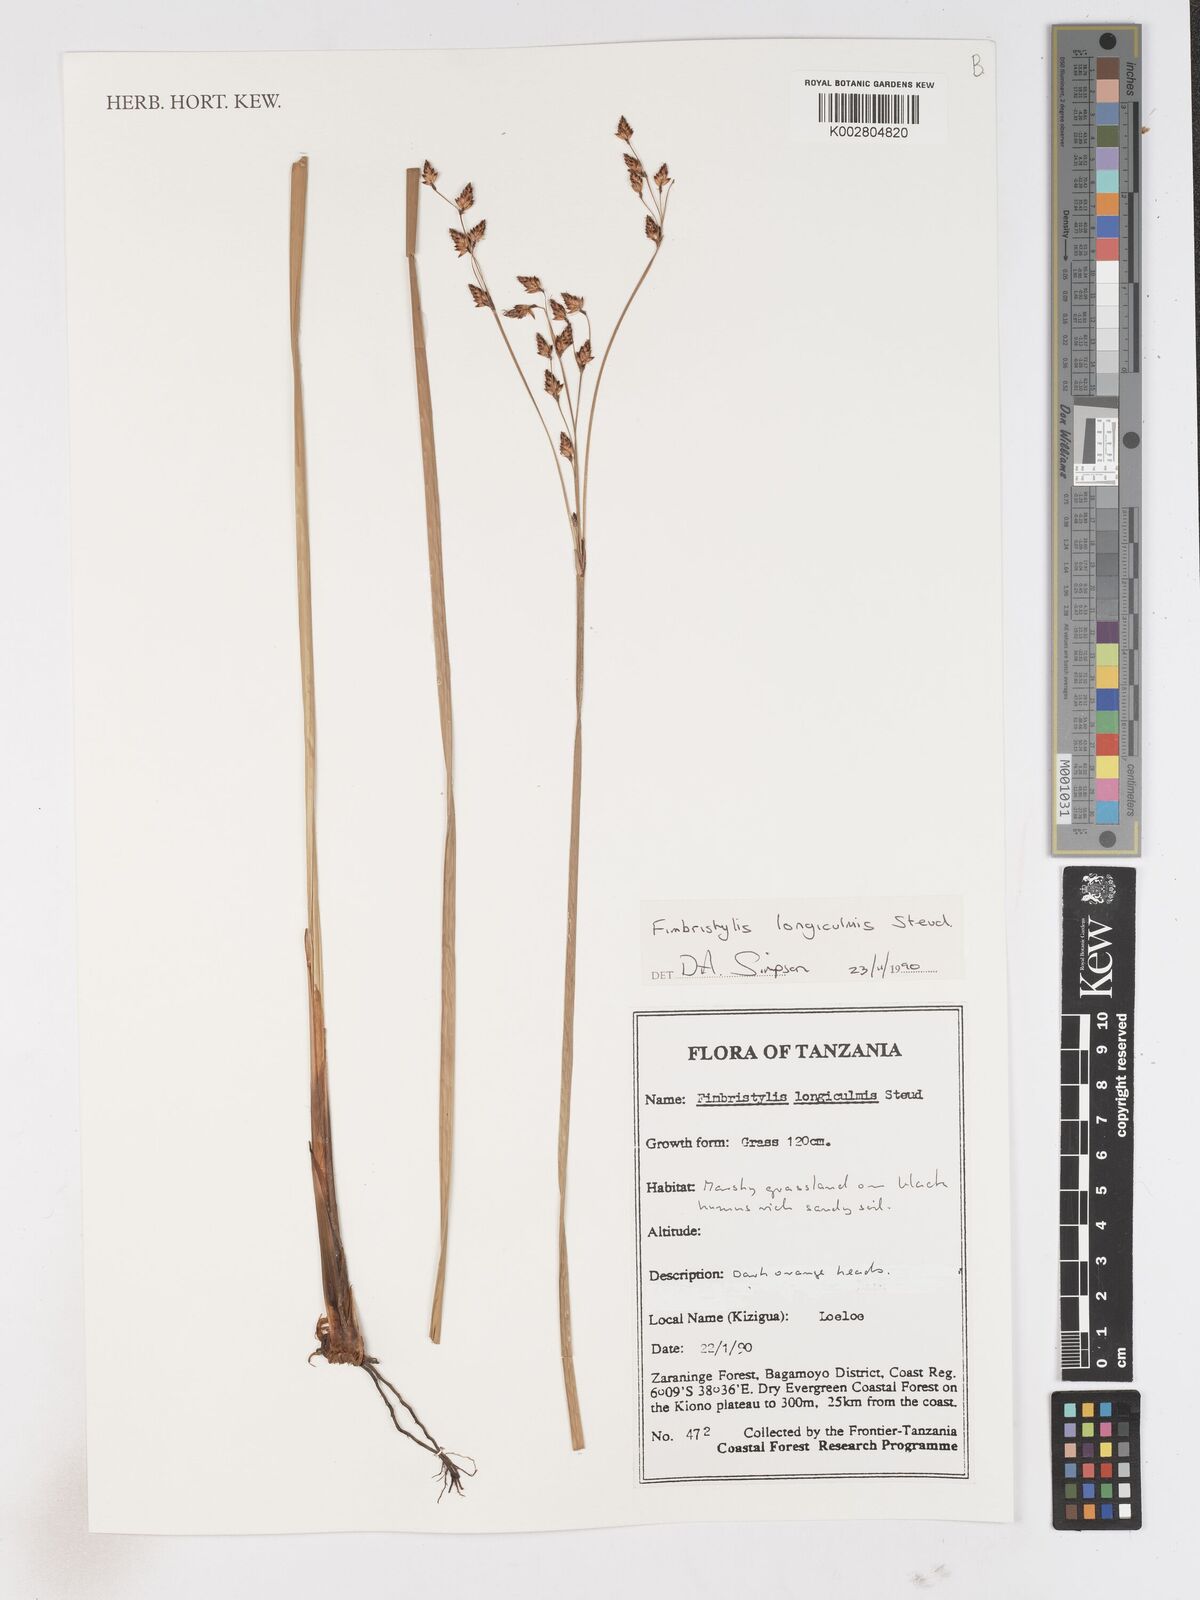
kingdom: Plantae
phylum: Tracheophyta
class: Liliopsida
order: Poales
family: Cyperaceae
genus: Fimbristylis
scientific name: Fimbristylis bivalvis
